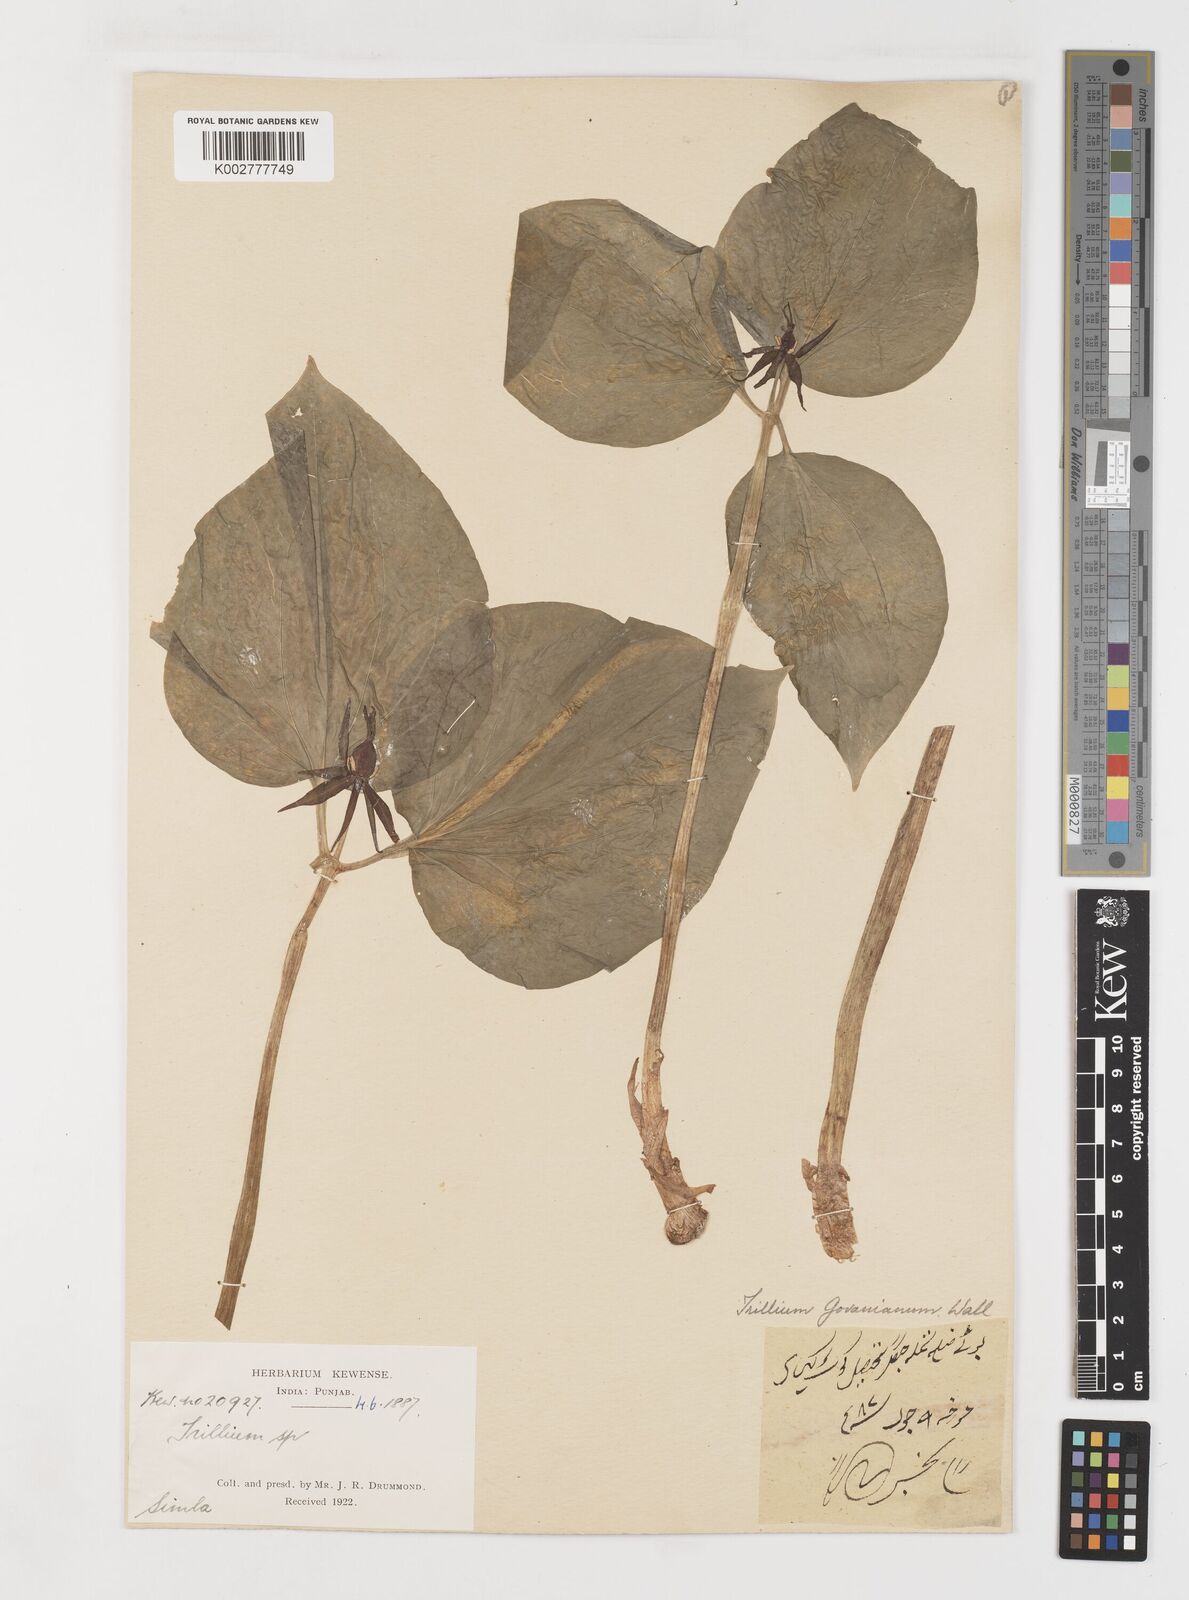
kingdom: Plantae
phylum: Tracheophyta
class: Liliopsida
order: Liliales
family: Melanthiaceae
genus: Trillium
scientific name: Trillium govanianum
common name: Himalayan trillium
